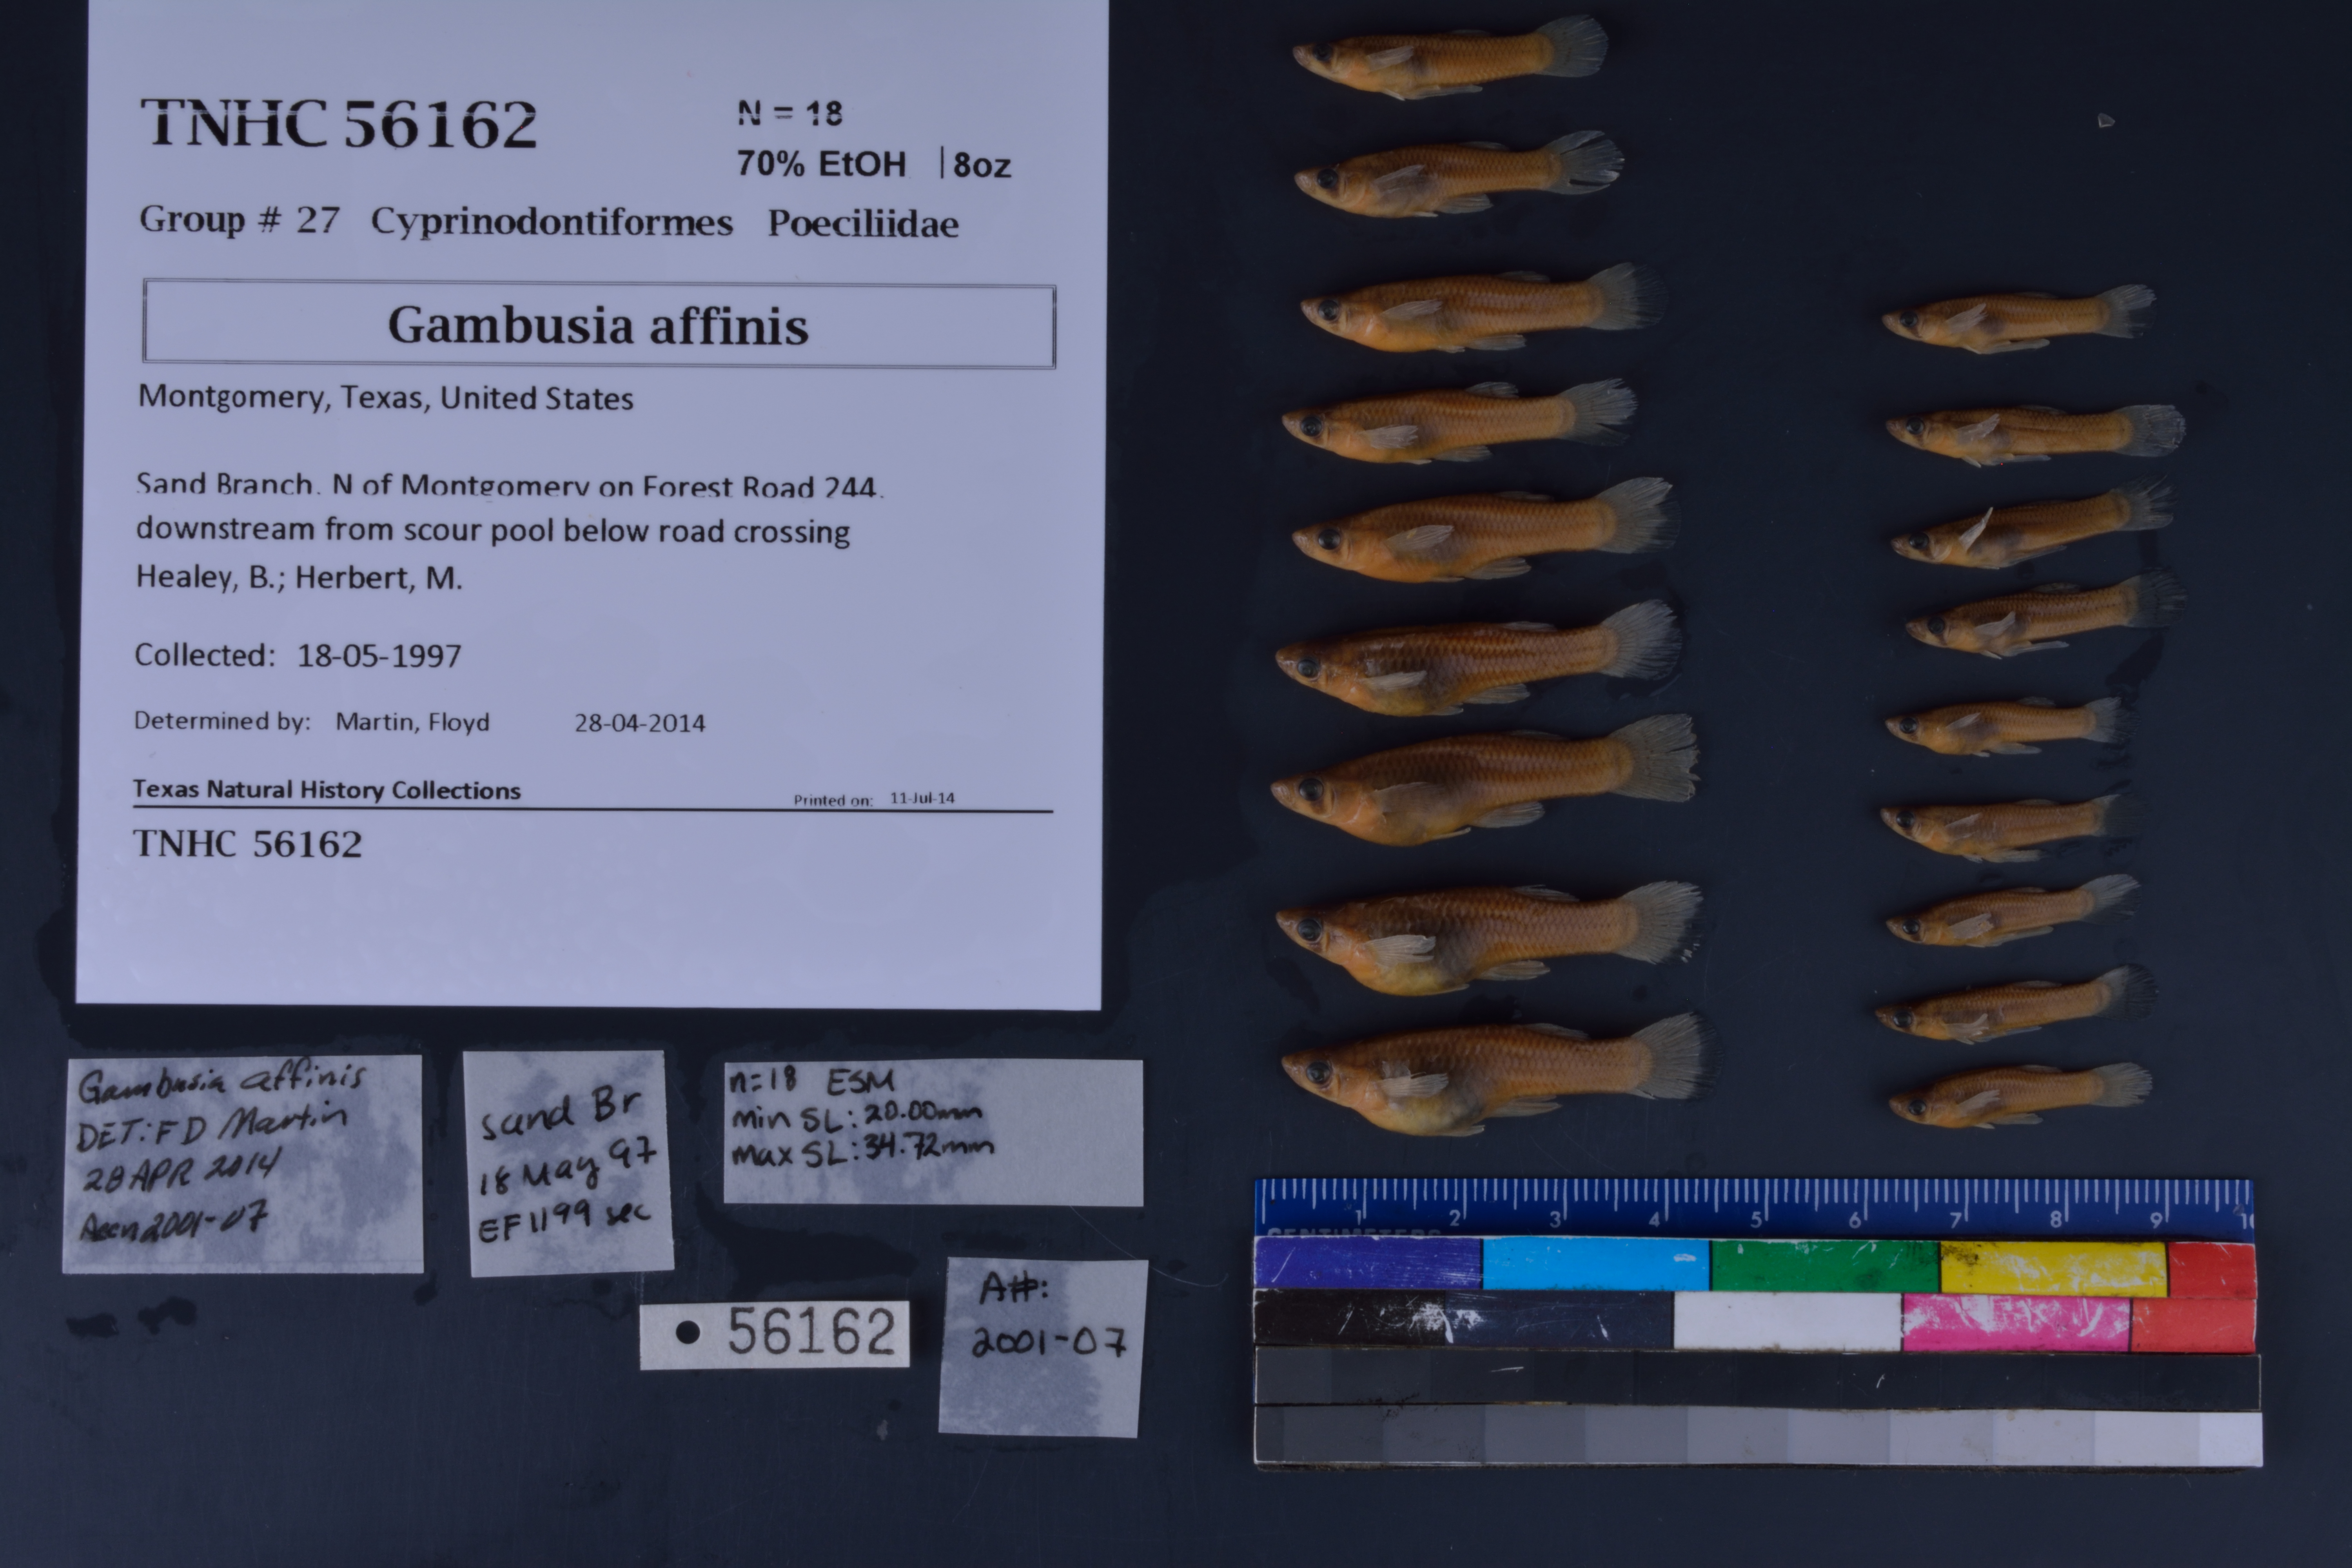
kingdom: Animalia
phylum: Chordata
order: Cyprinodontiformes
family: Poeciliidae
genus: Gambusia
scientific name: Gambusia affinis
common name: Mosquitofish
